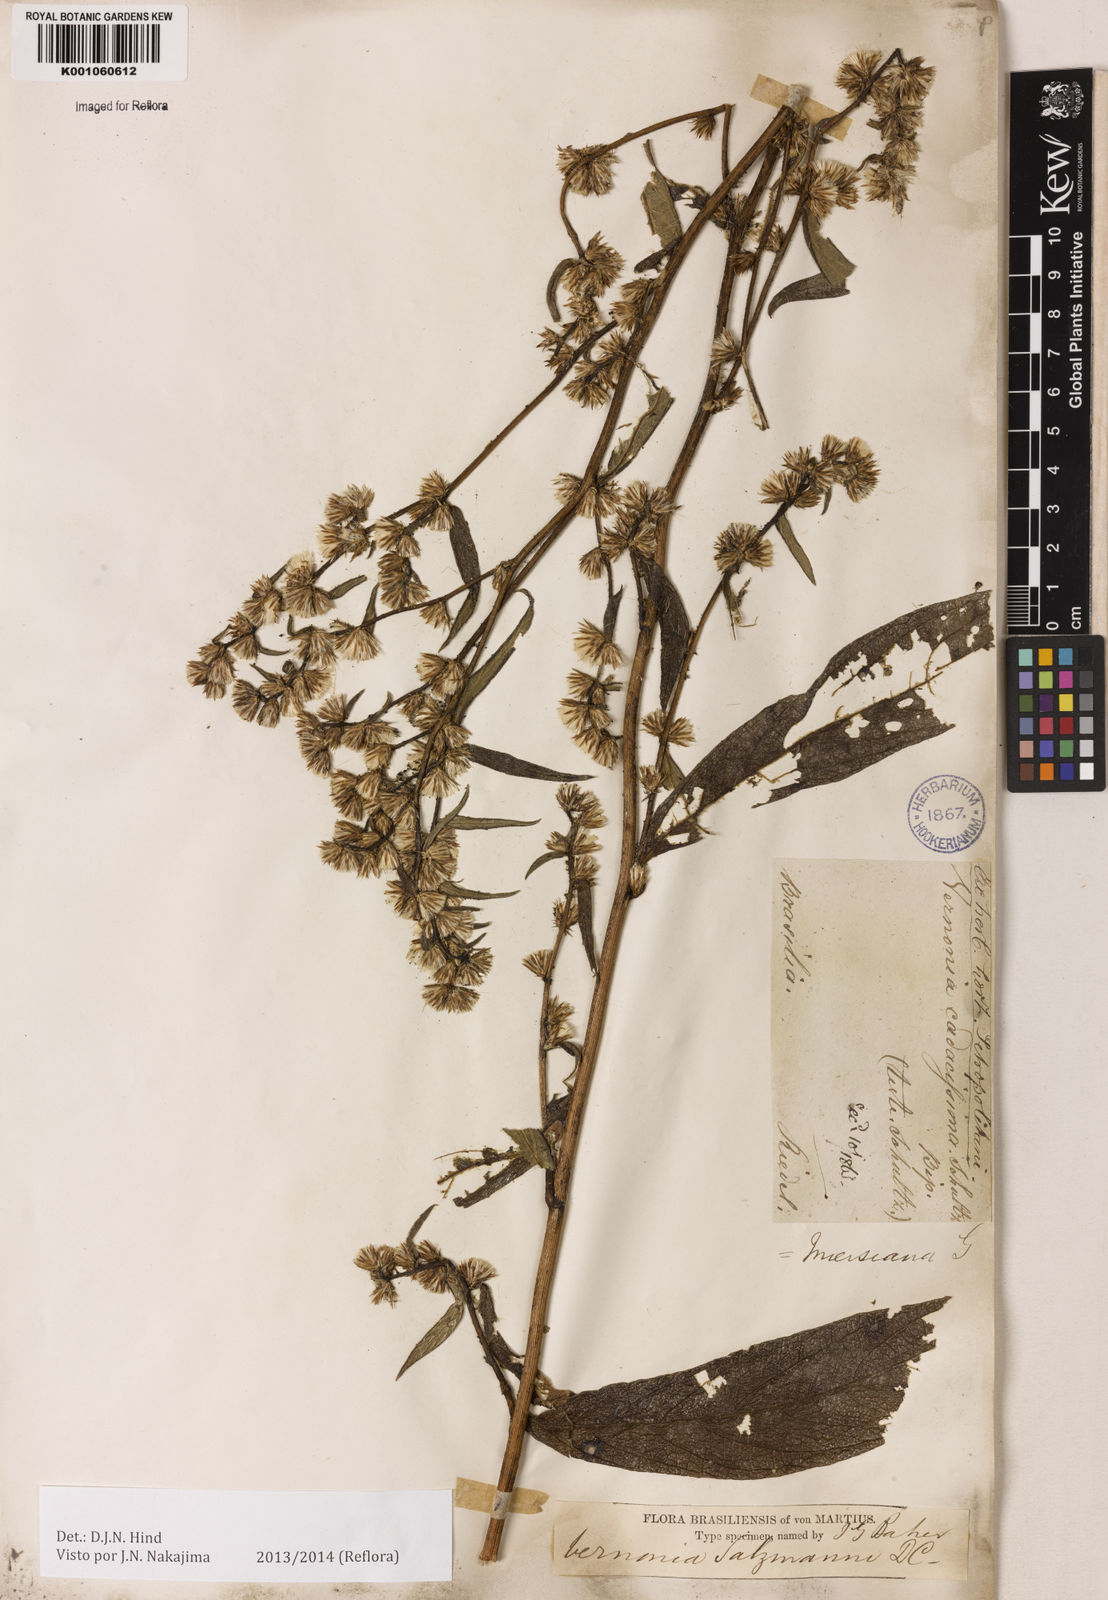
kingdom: Plantae
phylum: Tracheophyta
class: Magnoliopsida
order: Asterales
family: Asteraceae
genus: Lepidaploa
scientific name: Lepidaploa salzmannii
